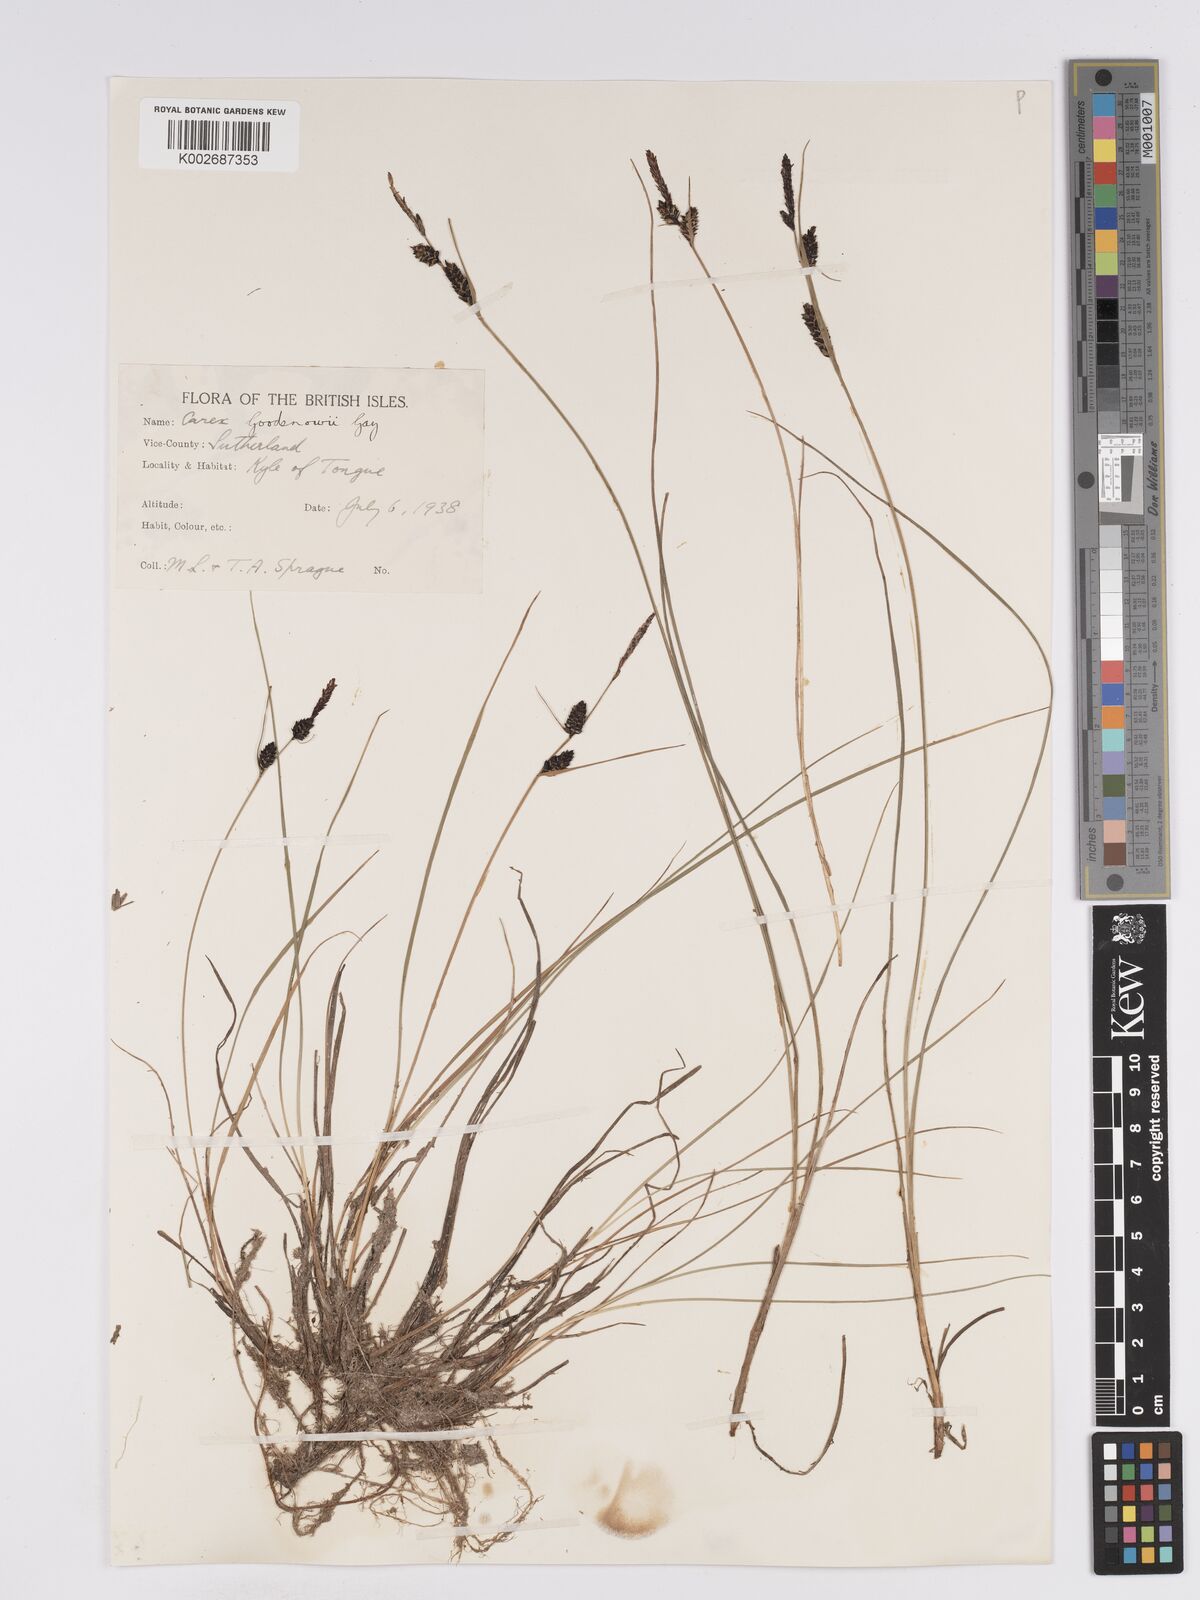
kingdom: Plantae
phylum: Tracheophyta
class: Liliopsida
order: Poales
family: Cyperaceae
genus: Carex
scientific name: Carex nigra
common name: Common sedge
